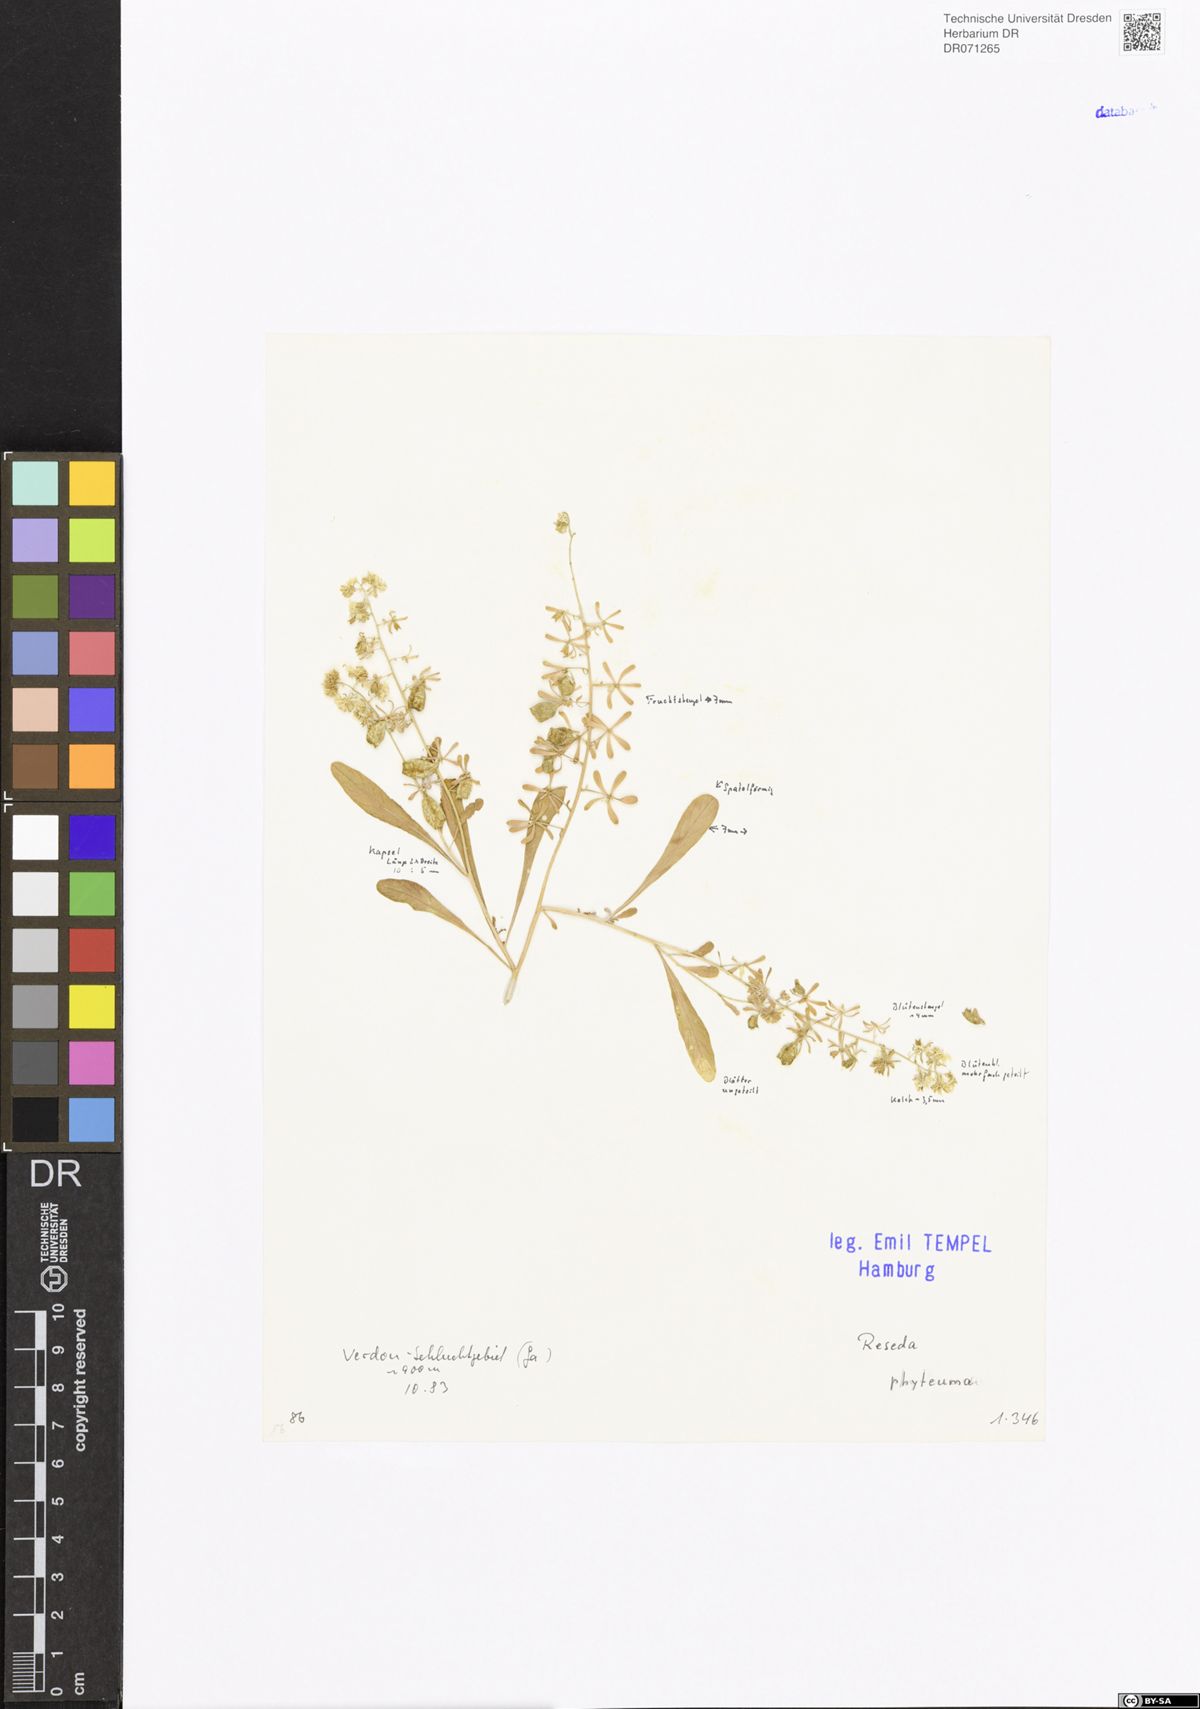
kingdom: Plantae
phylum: Tracheophyta
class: Magnoliopsida
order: Brassicales
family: Resedaceae
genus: Reseda
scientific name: Reseda phyteuma
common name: Corn mignonette
